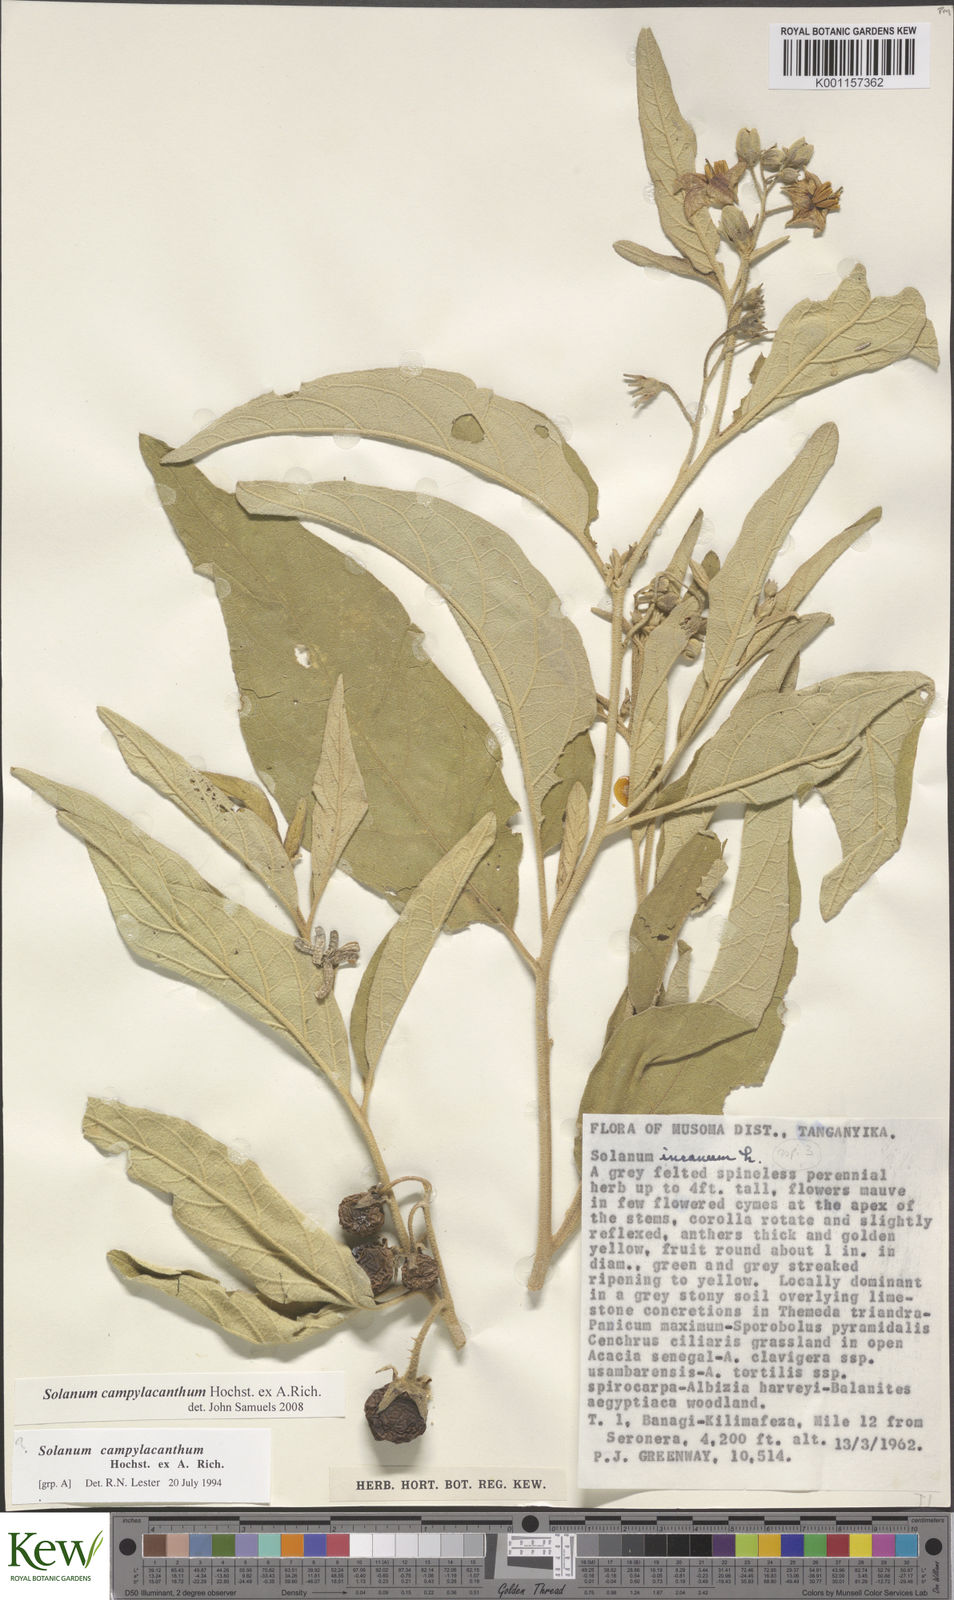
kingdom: Plantae
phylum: Tracheophyta
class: Magnoliopsida
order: Solanales
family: Solanaceae
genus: Solanum
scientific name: Solanum campylacanthum
